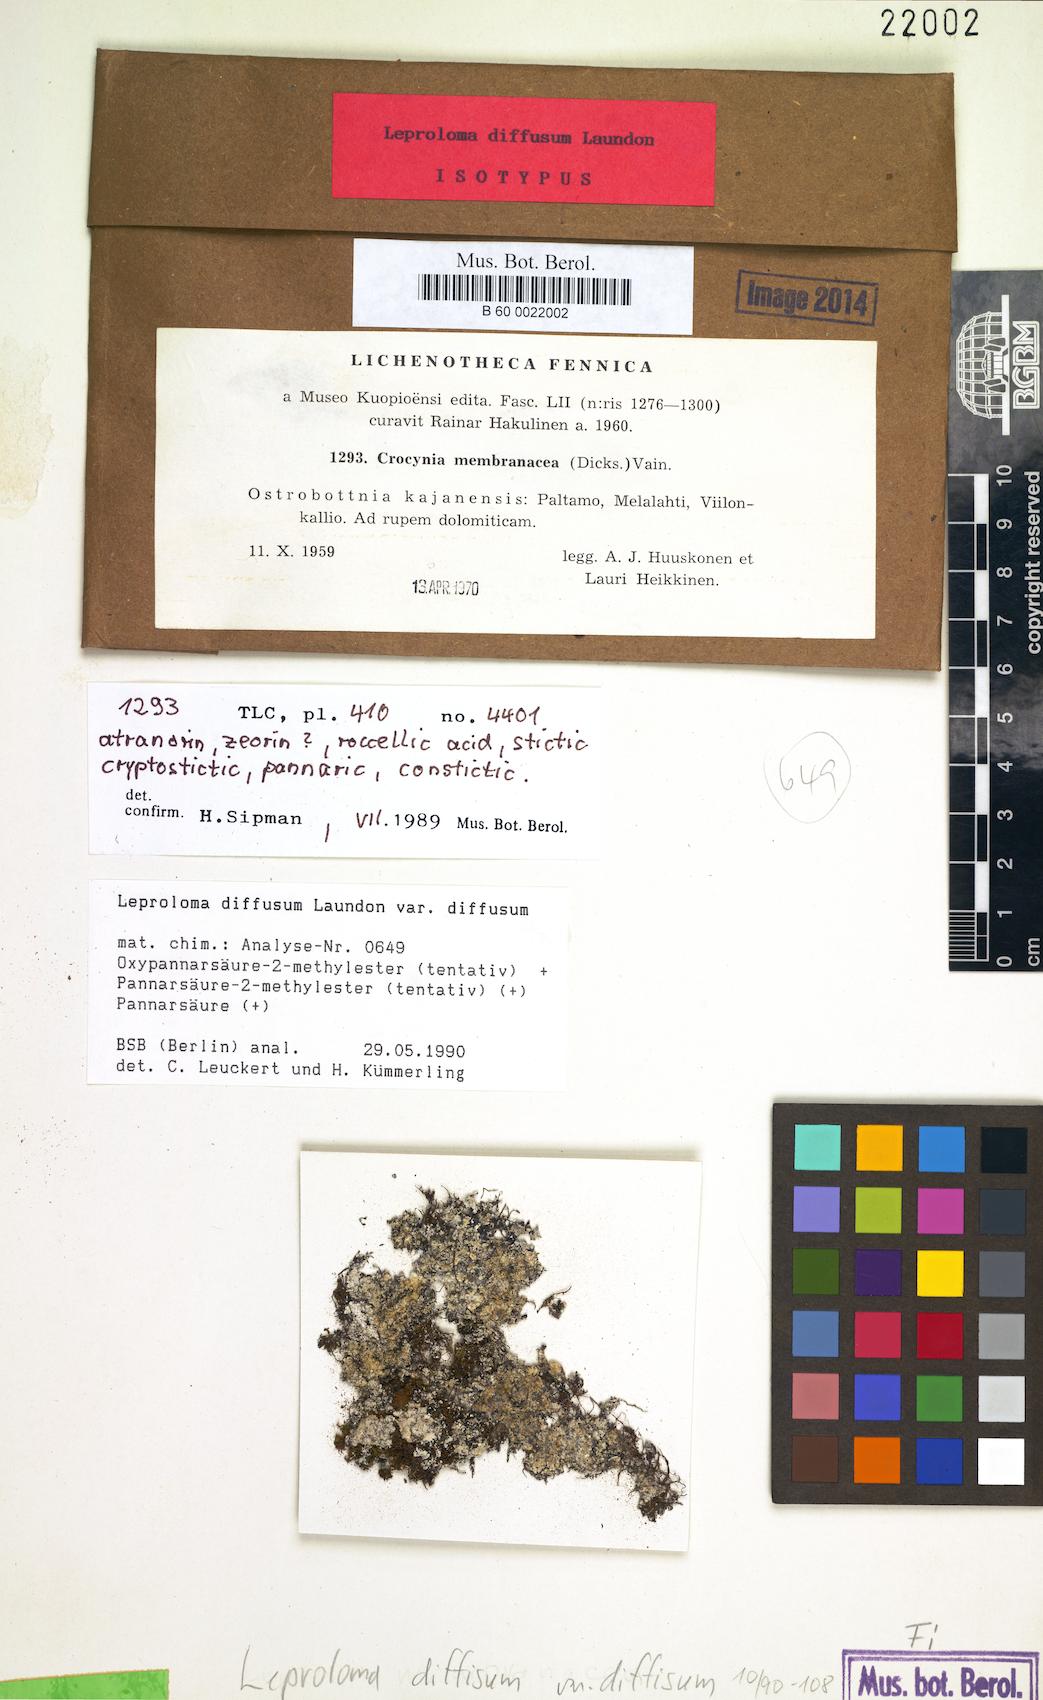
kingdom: Fungi
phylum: Ascomycota
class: Lecanoromycetes
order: Lecanorales
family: Stereocaulaceae
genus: Lepraria
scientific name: Lepraria diffusa
